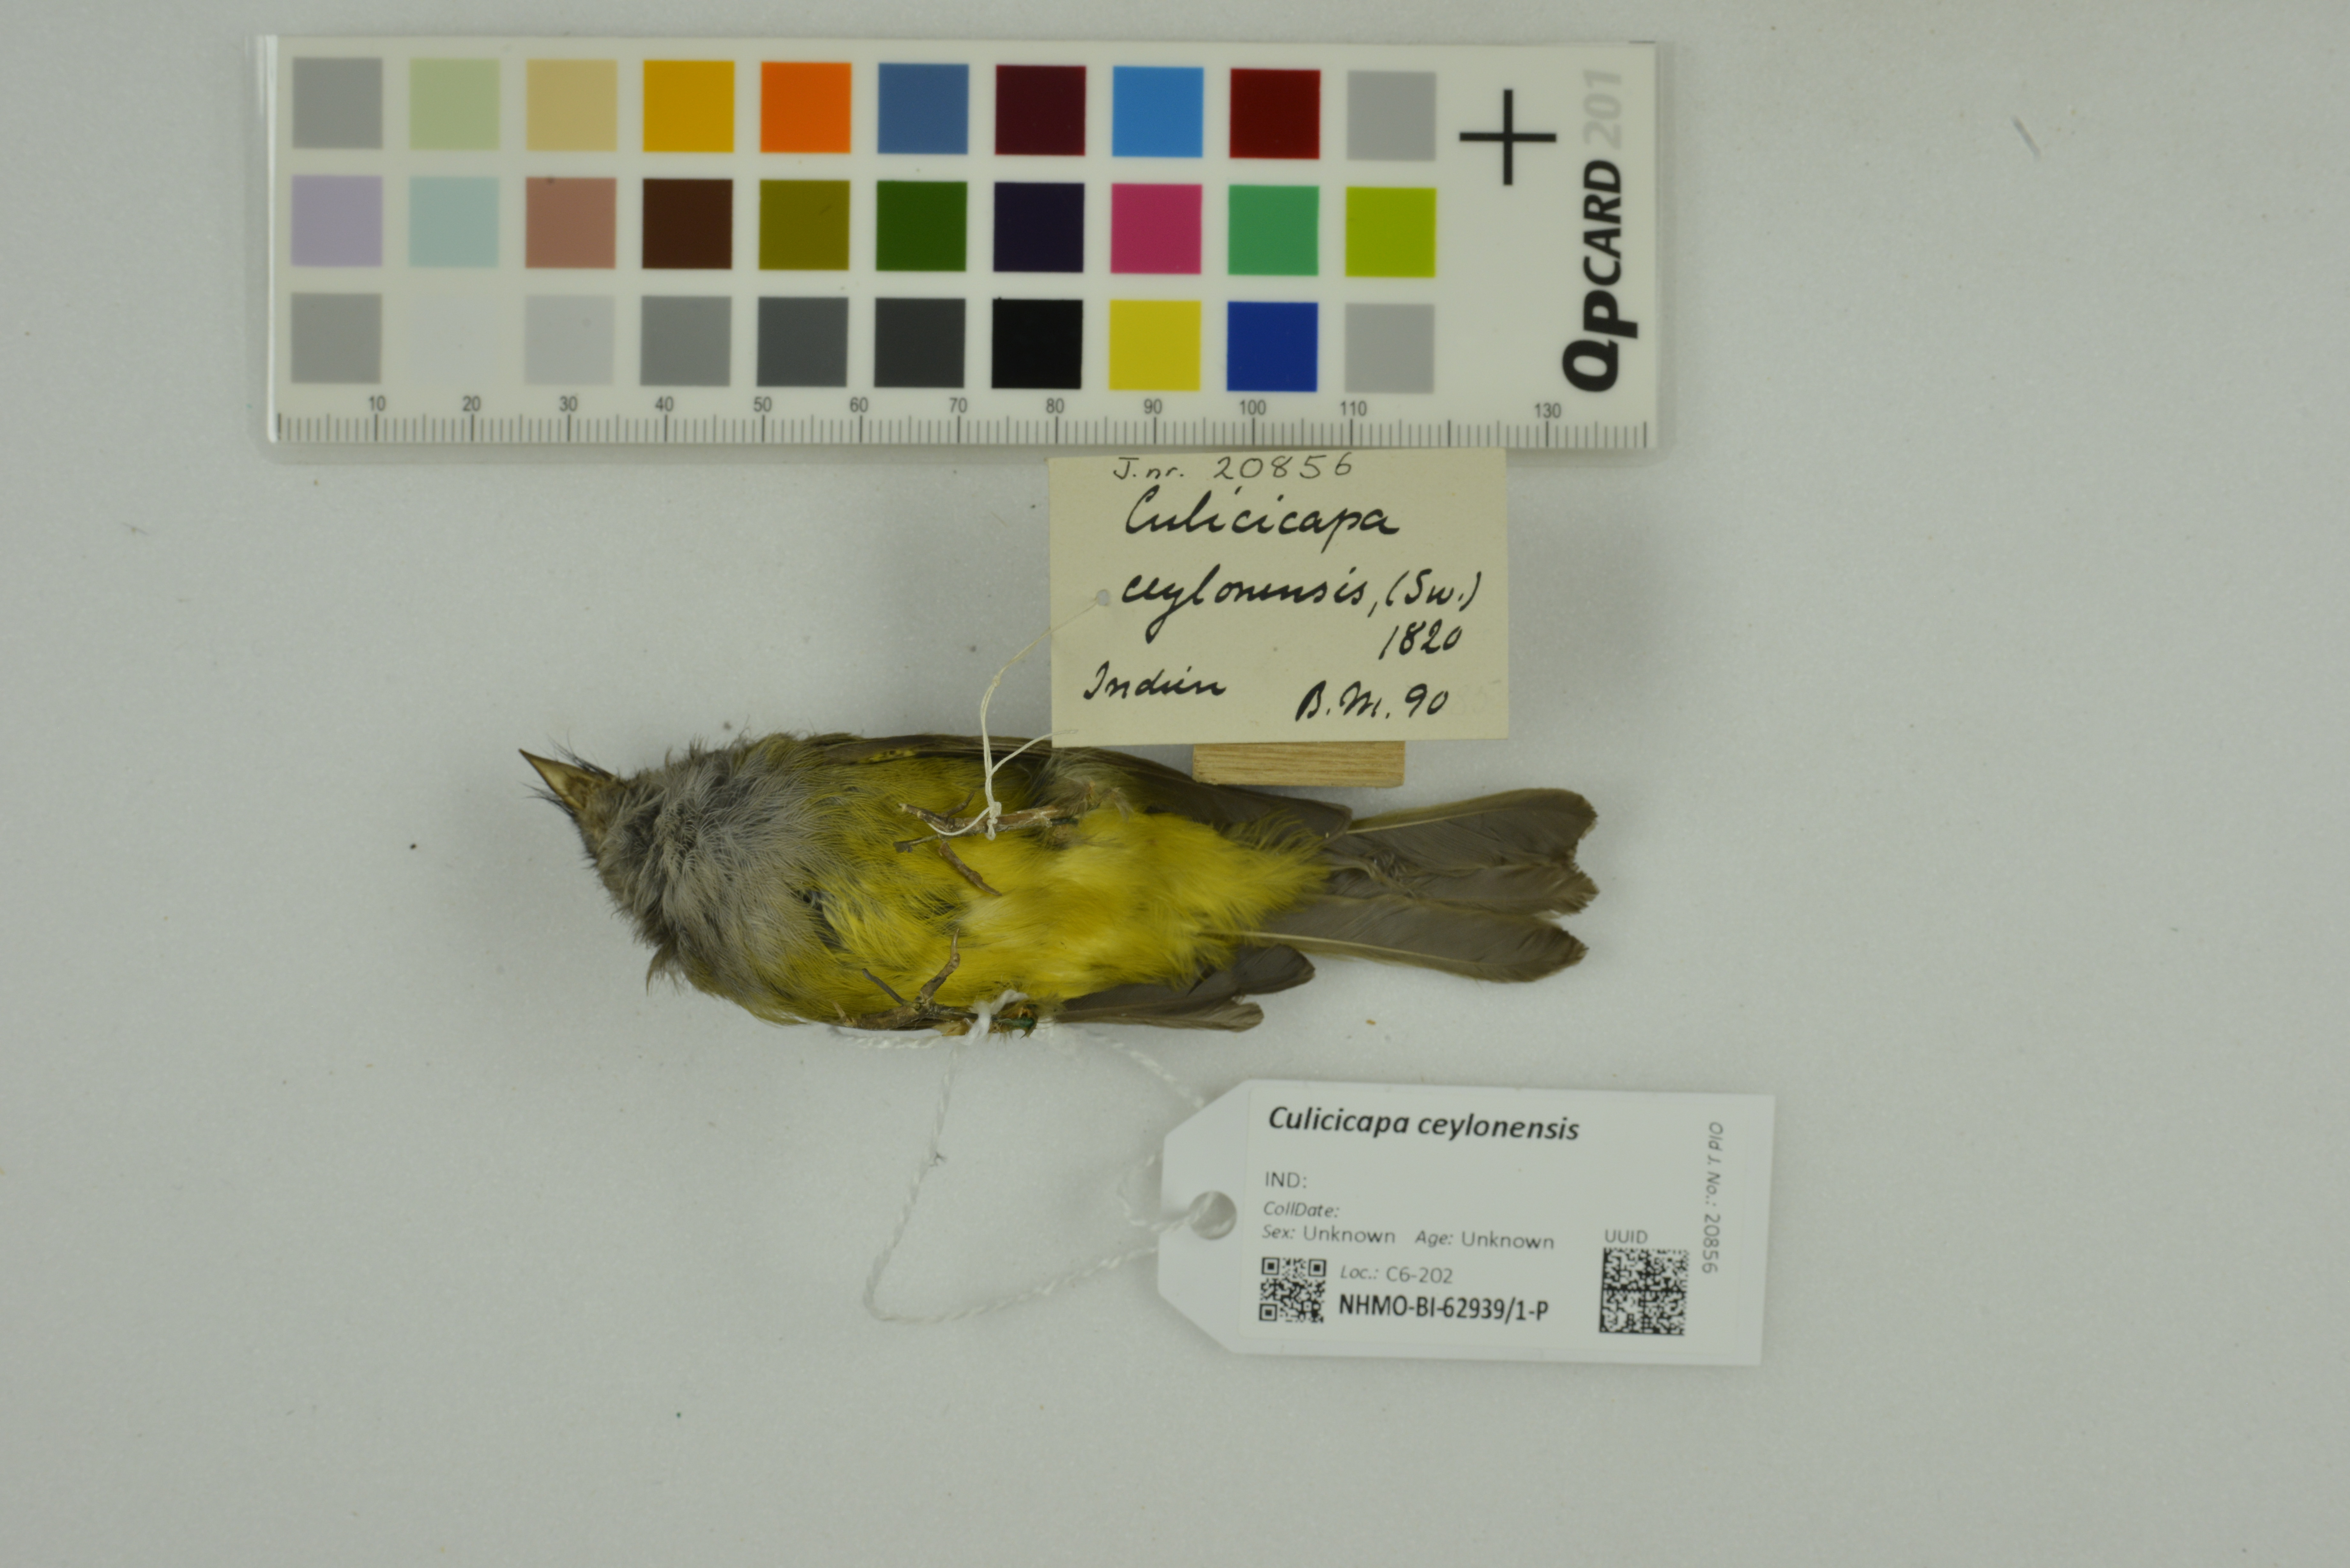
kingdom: Animalia
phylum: Chordata
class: Aves
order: Passeriformes
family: Stenostiridae
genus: Culicicapa
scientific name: Culicicapa ceylonensis
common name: Grey-headed canary-flycatcher
